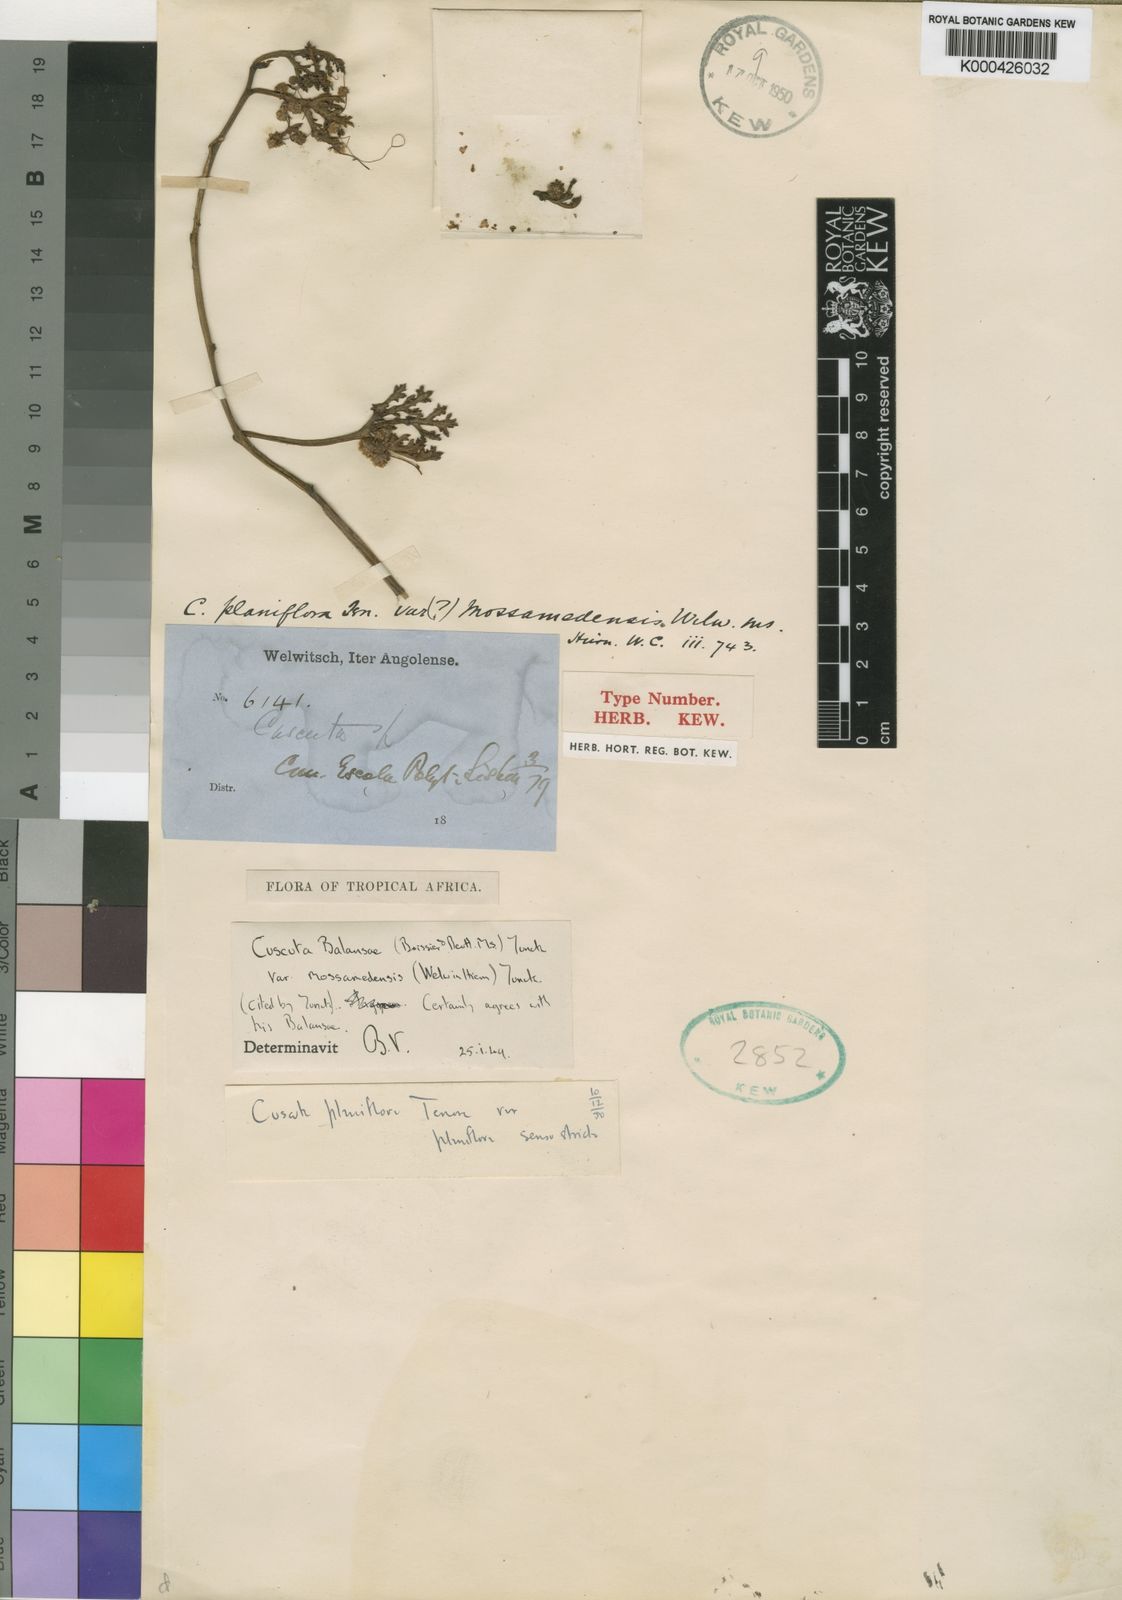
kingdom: Plantae
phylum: Tracheophyta
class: Magnoliopsida
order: Solanales
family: Convolvulaceae
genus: Cuscuta
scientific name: Cuscuta planiflora
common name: Small-seed alfalfa dodder
